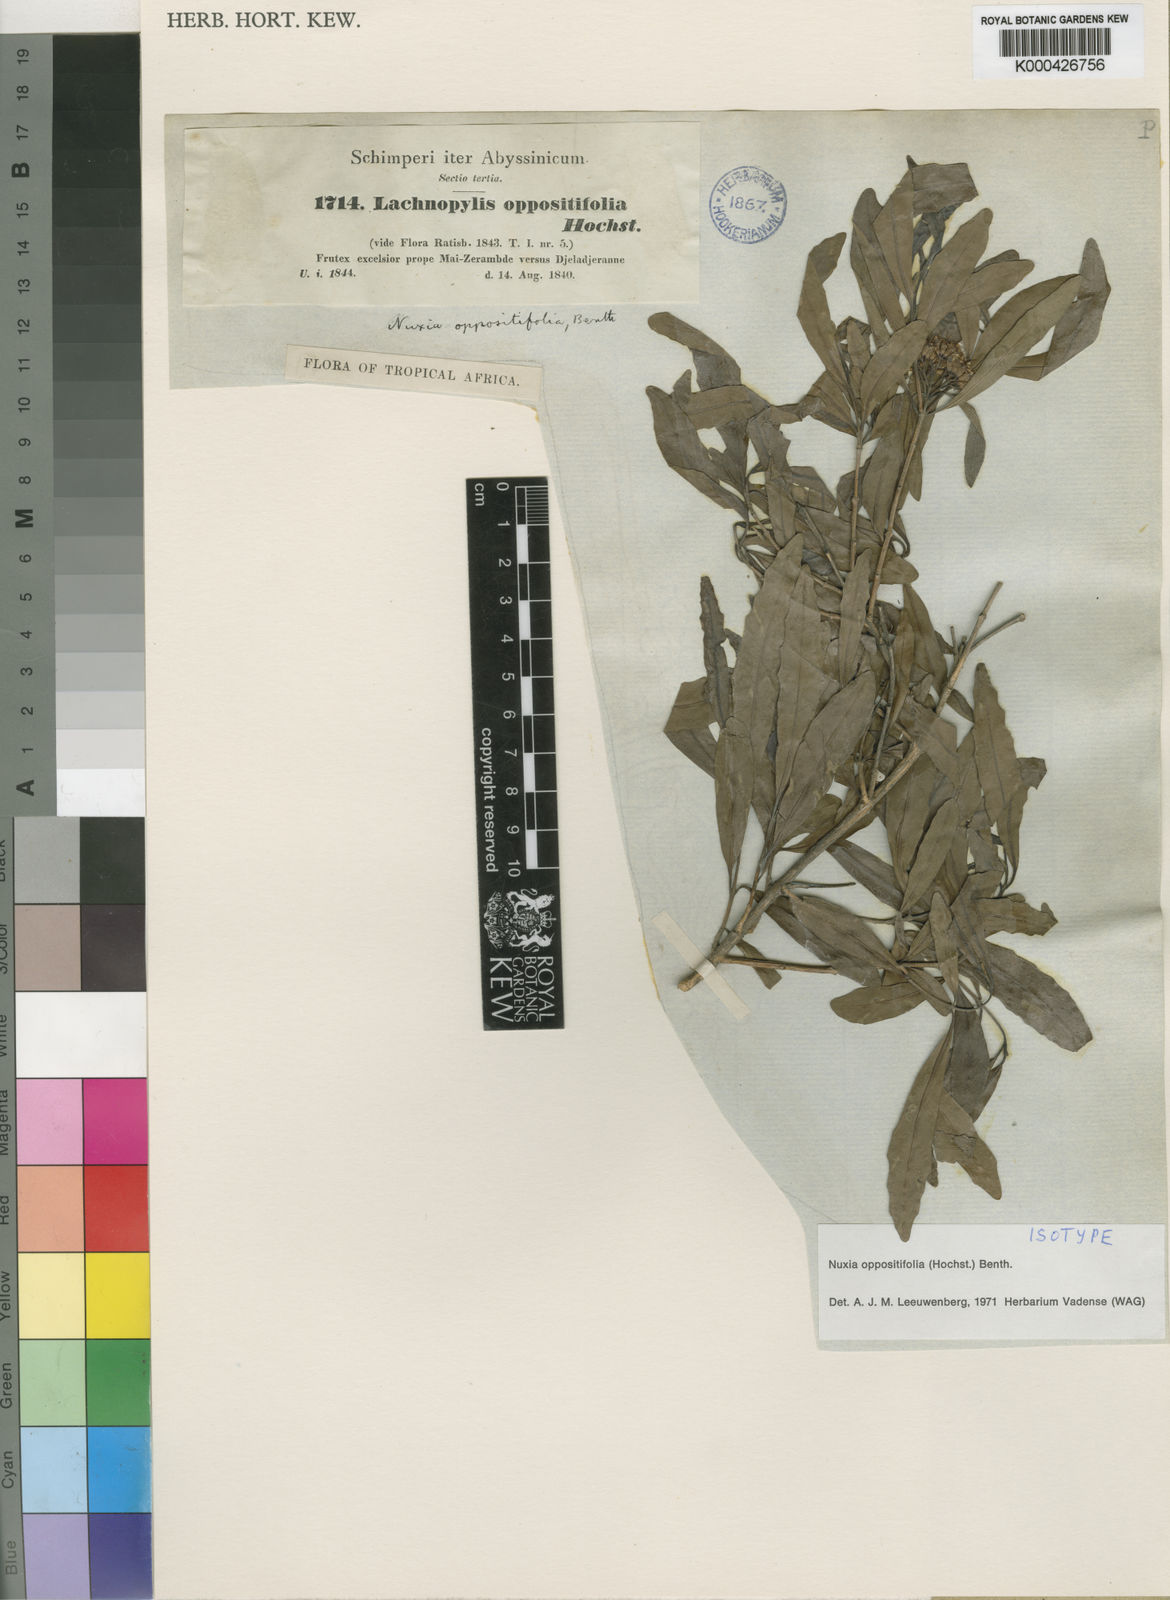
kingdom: Plantae
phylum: Tracheophyta
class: Magnoliopsida
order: Lamiales
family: Stilbaceae
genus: Nuxia
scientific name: Nuxia oppositifolia
